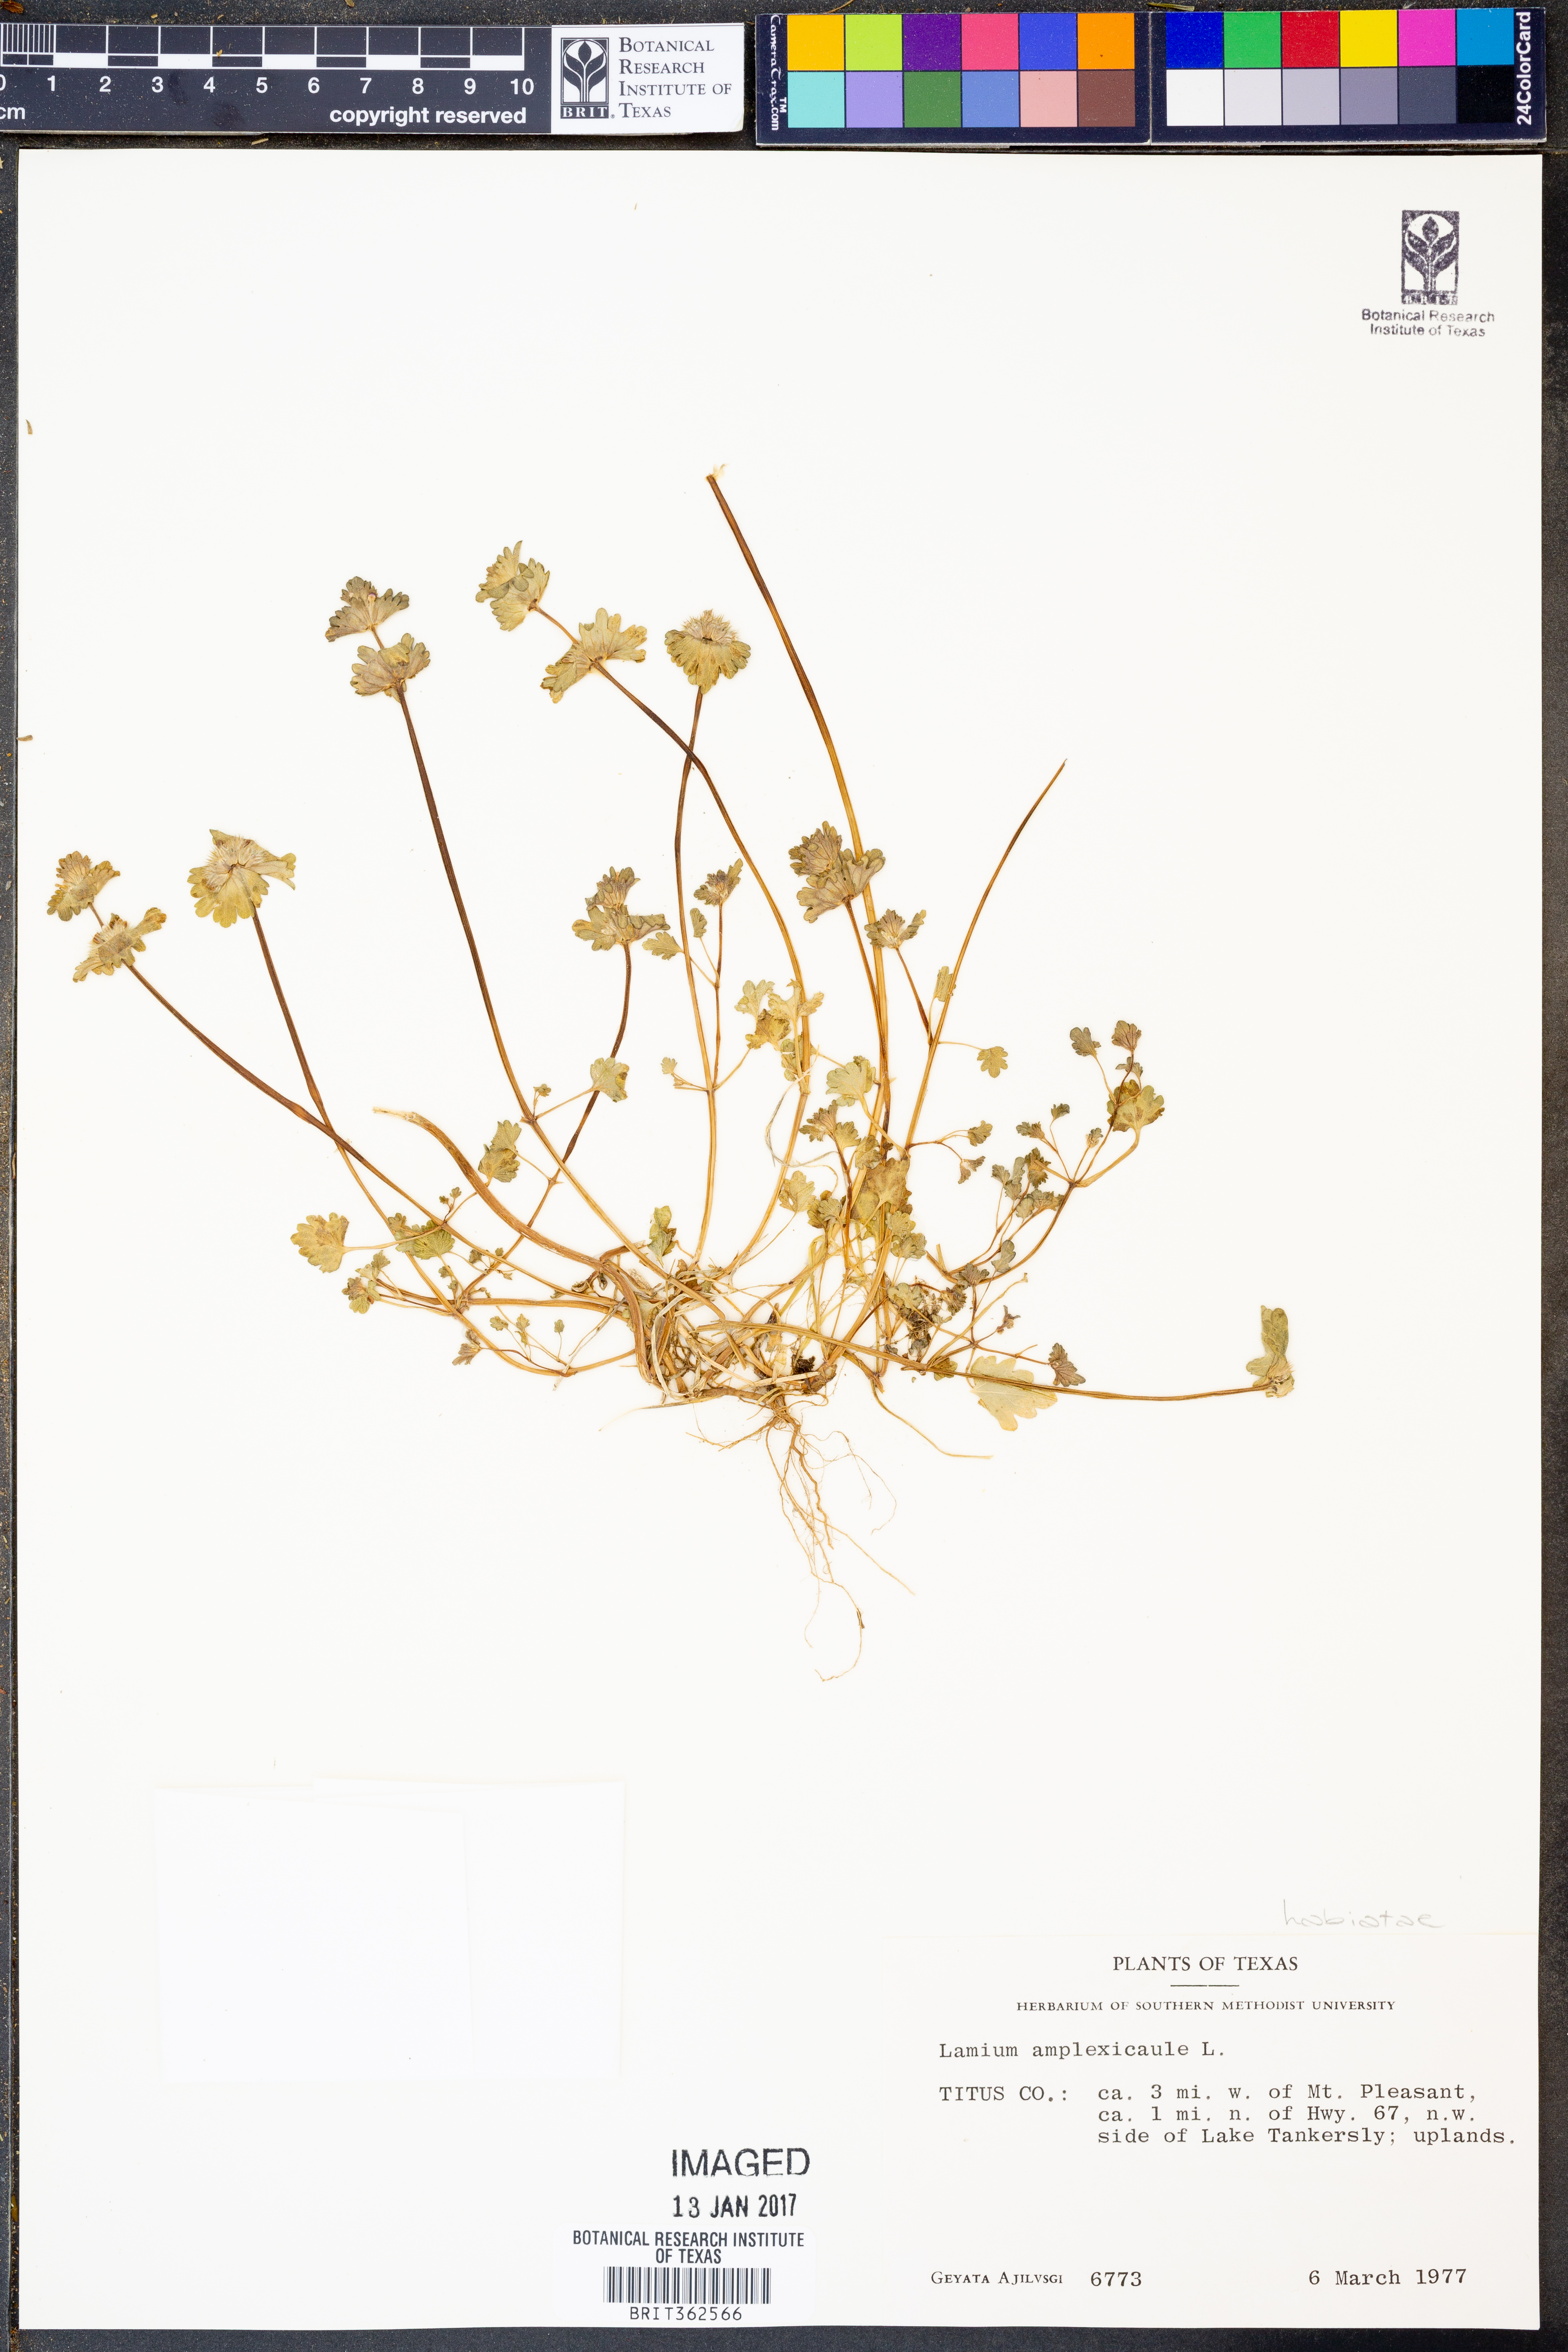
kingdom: Plantae
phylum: Tracheophyta
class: Magnoliopsida
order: Lamiales
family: Lamiaceae
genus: Lamium
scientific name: Lamium amplexicaule
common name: Henbit dead-nettle
